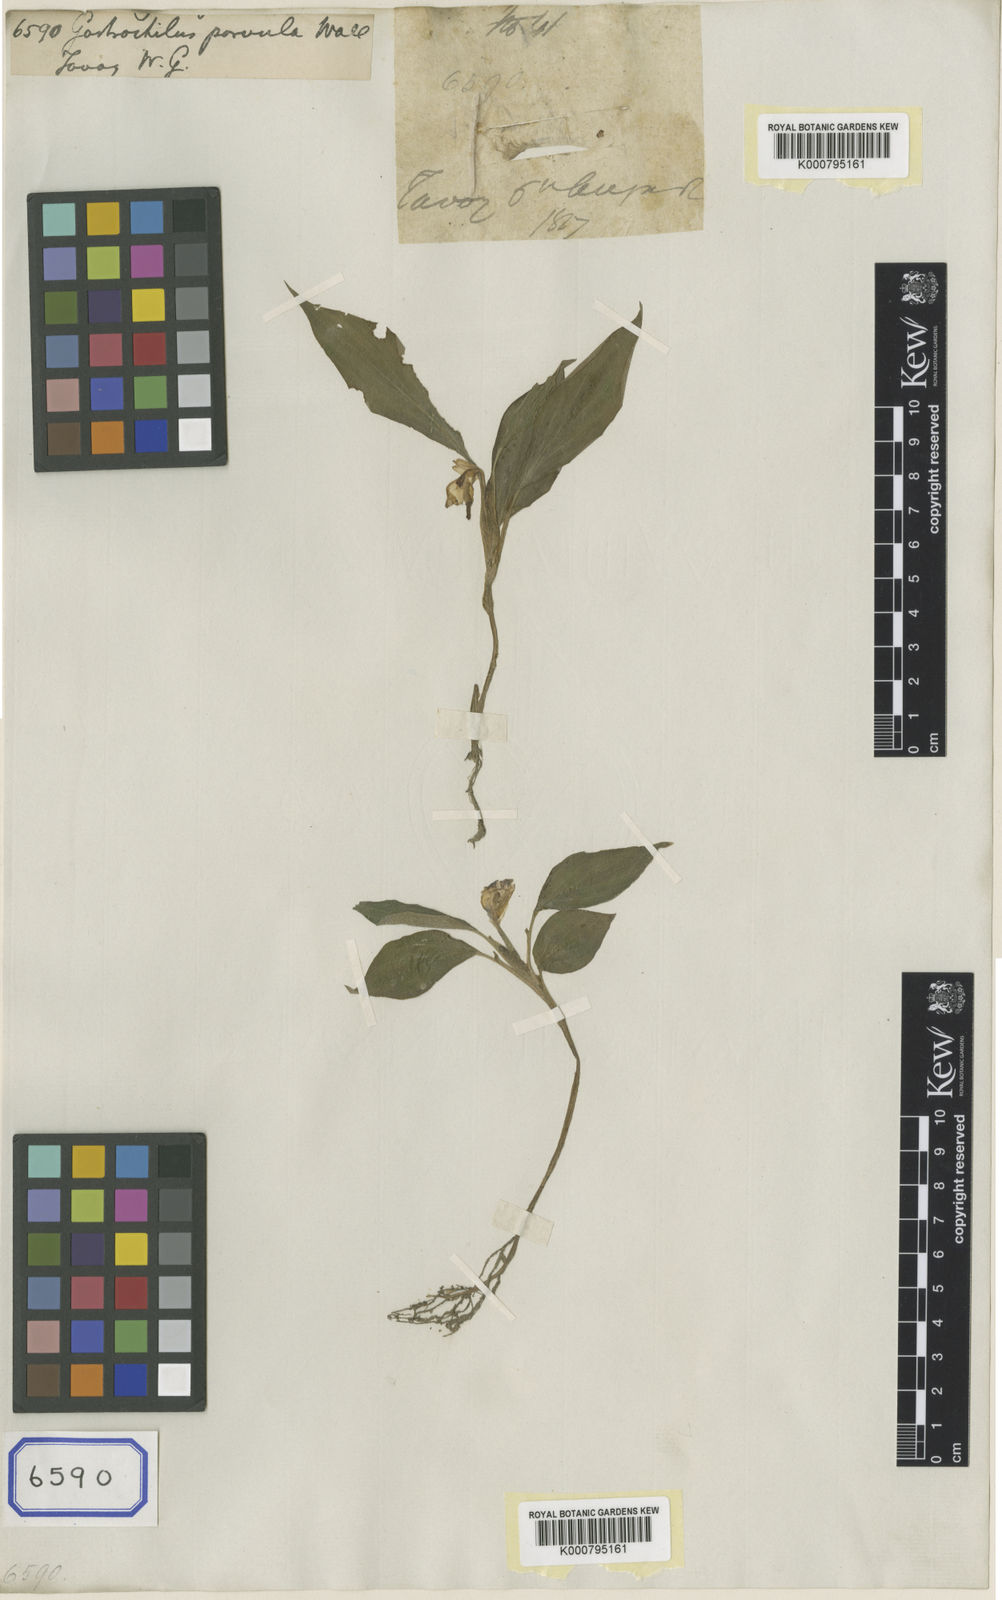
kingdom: Plantae
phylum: Tracheophyta
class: Liliopsida
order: Zingiberales
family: Zingiberaceae
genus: Boesenbergia
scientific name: Boesenbergia parvula
